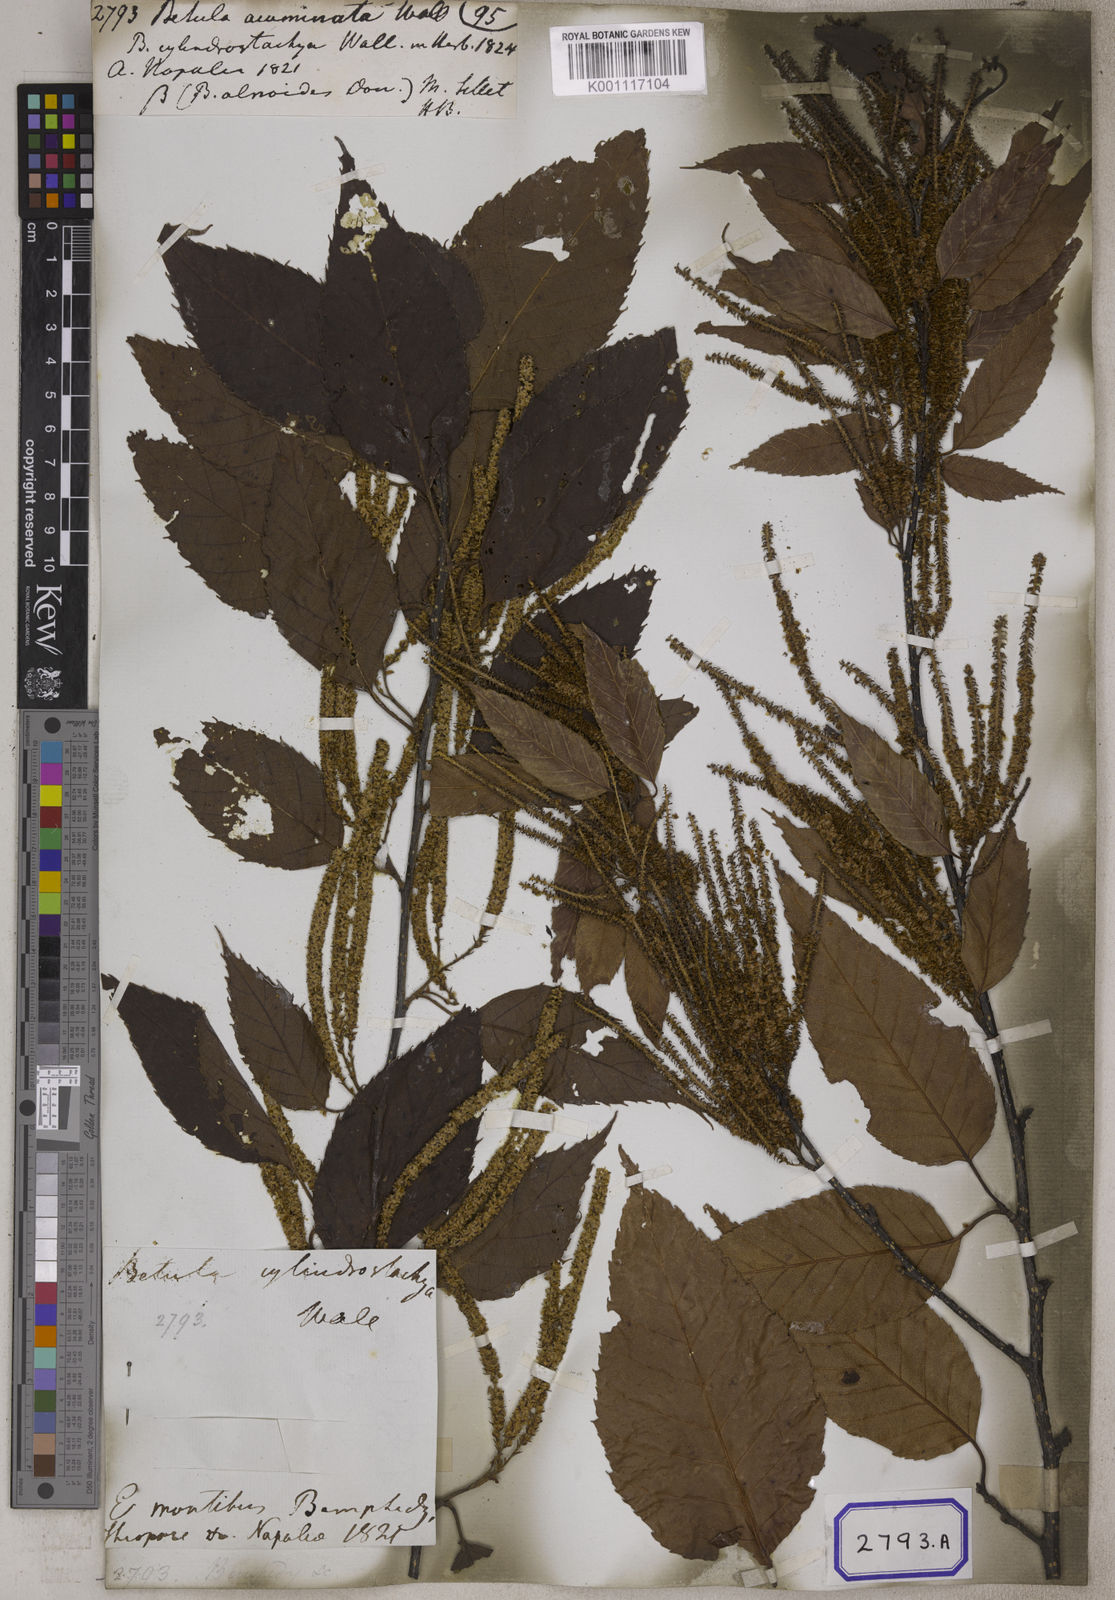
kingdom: Plantae
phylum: Tracheophyta
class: Magnoliopsida
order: Fagales
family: Betulaceae
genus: Betula
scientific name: Betula alnoides
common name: Indian birch
